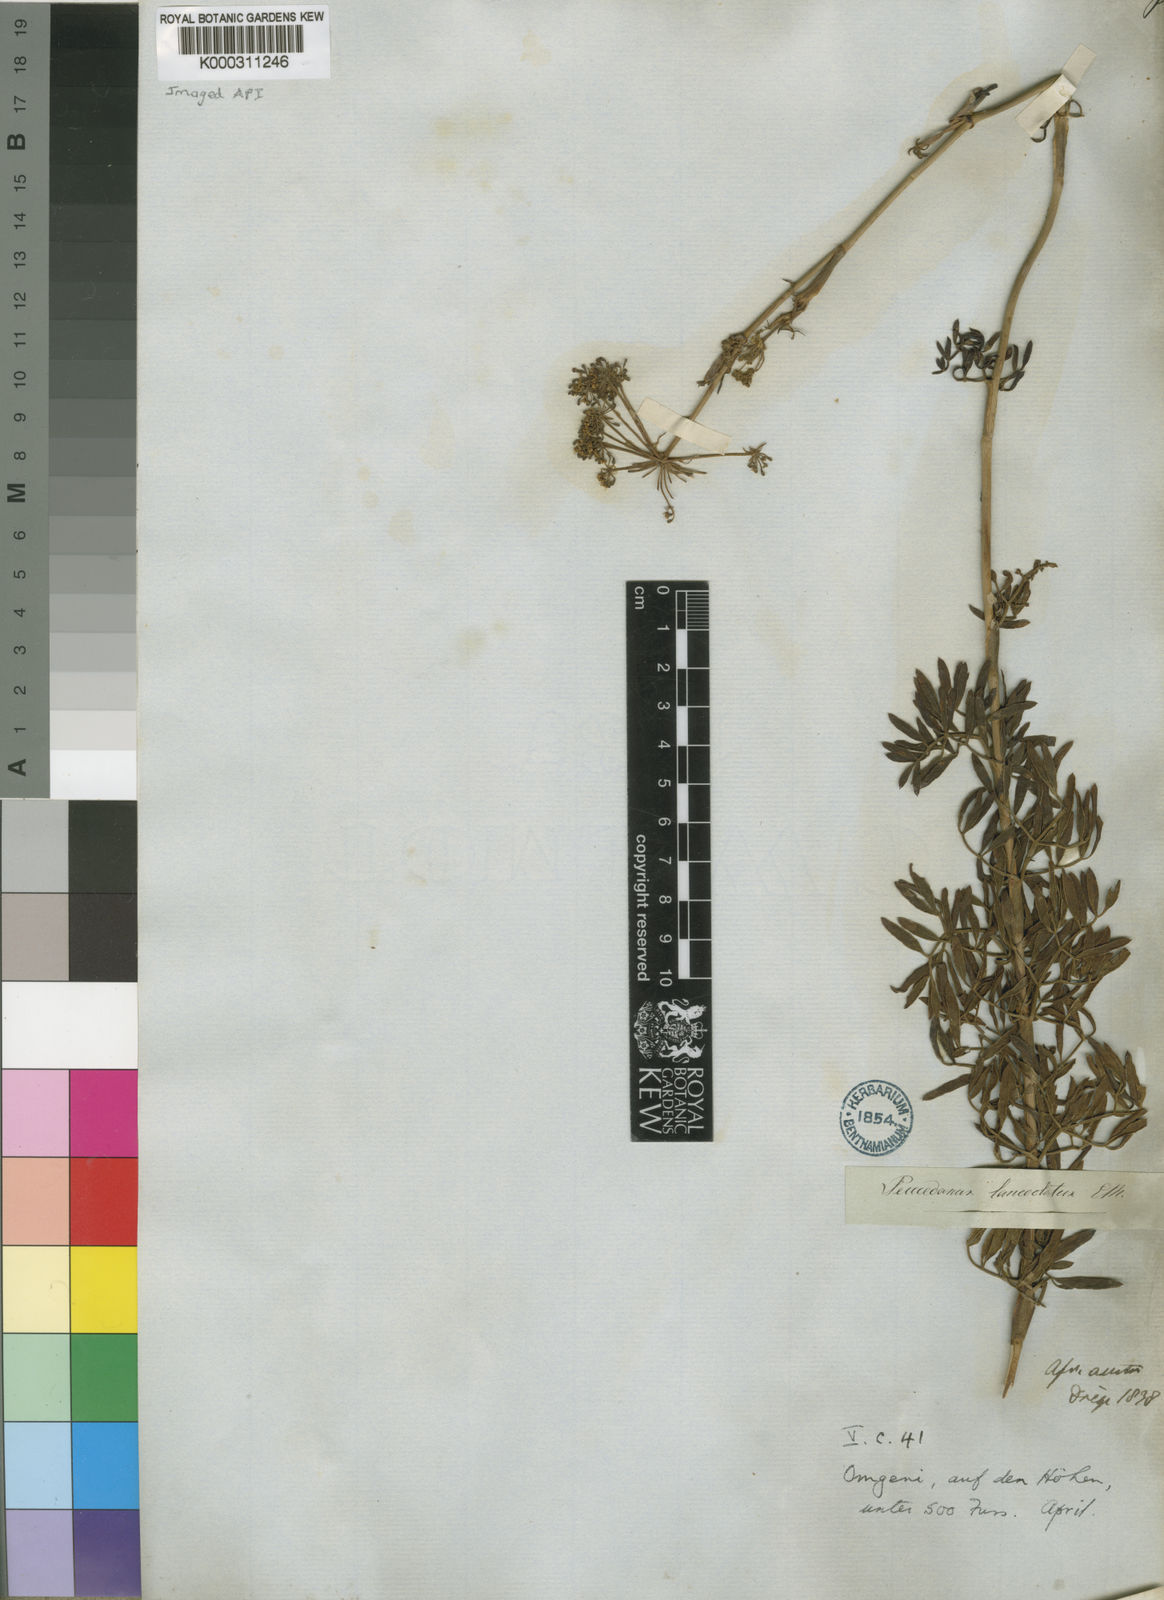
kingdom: Plantae
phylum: Tracheophyta
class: Magnoliopsida
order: Apiales
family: Apiaceae
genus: Notobubon
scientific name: Notobubon
